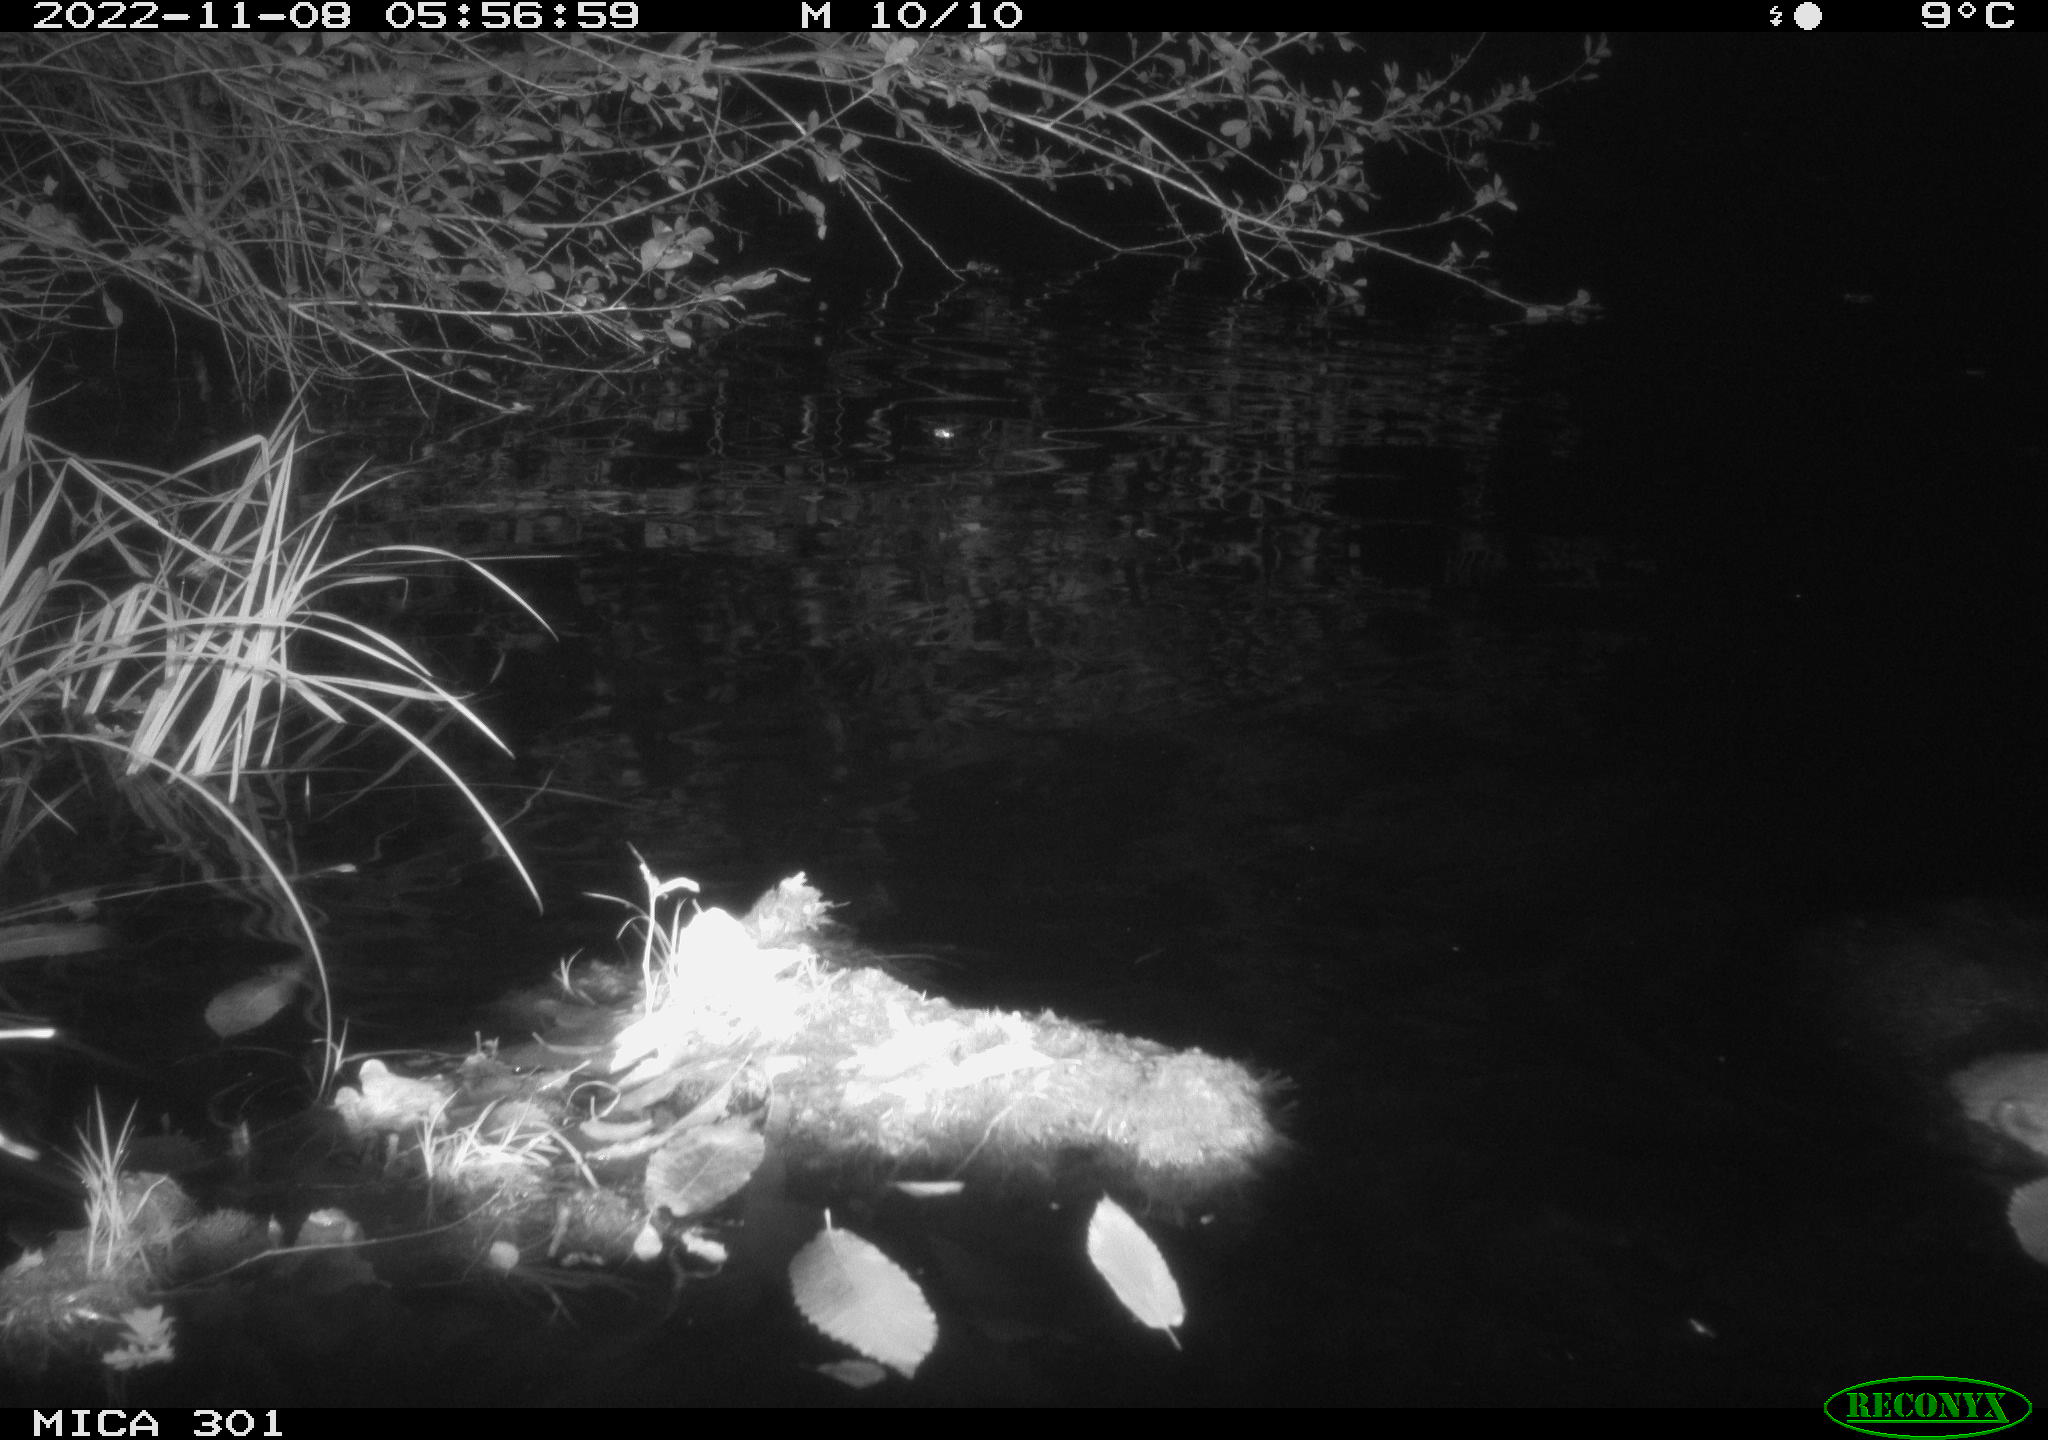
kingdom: Animalia
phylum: Chordata
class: Mammalia
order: Rodentia
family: Castoridae
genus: Castor
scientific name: Castor fiber
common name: Eurasian beaver
